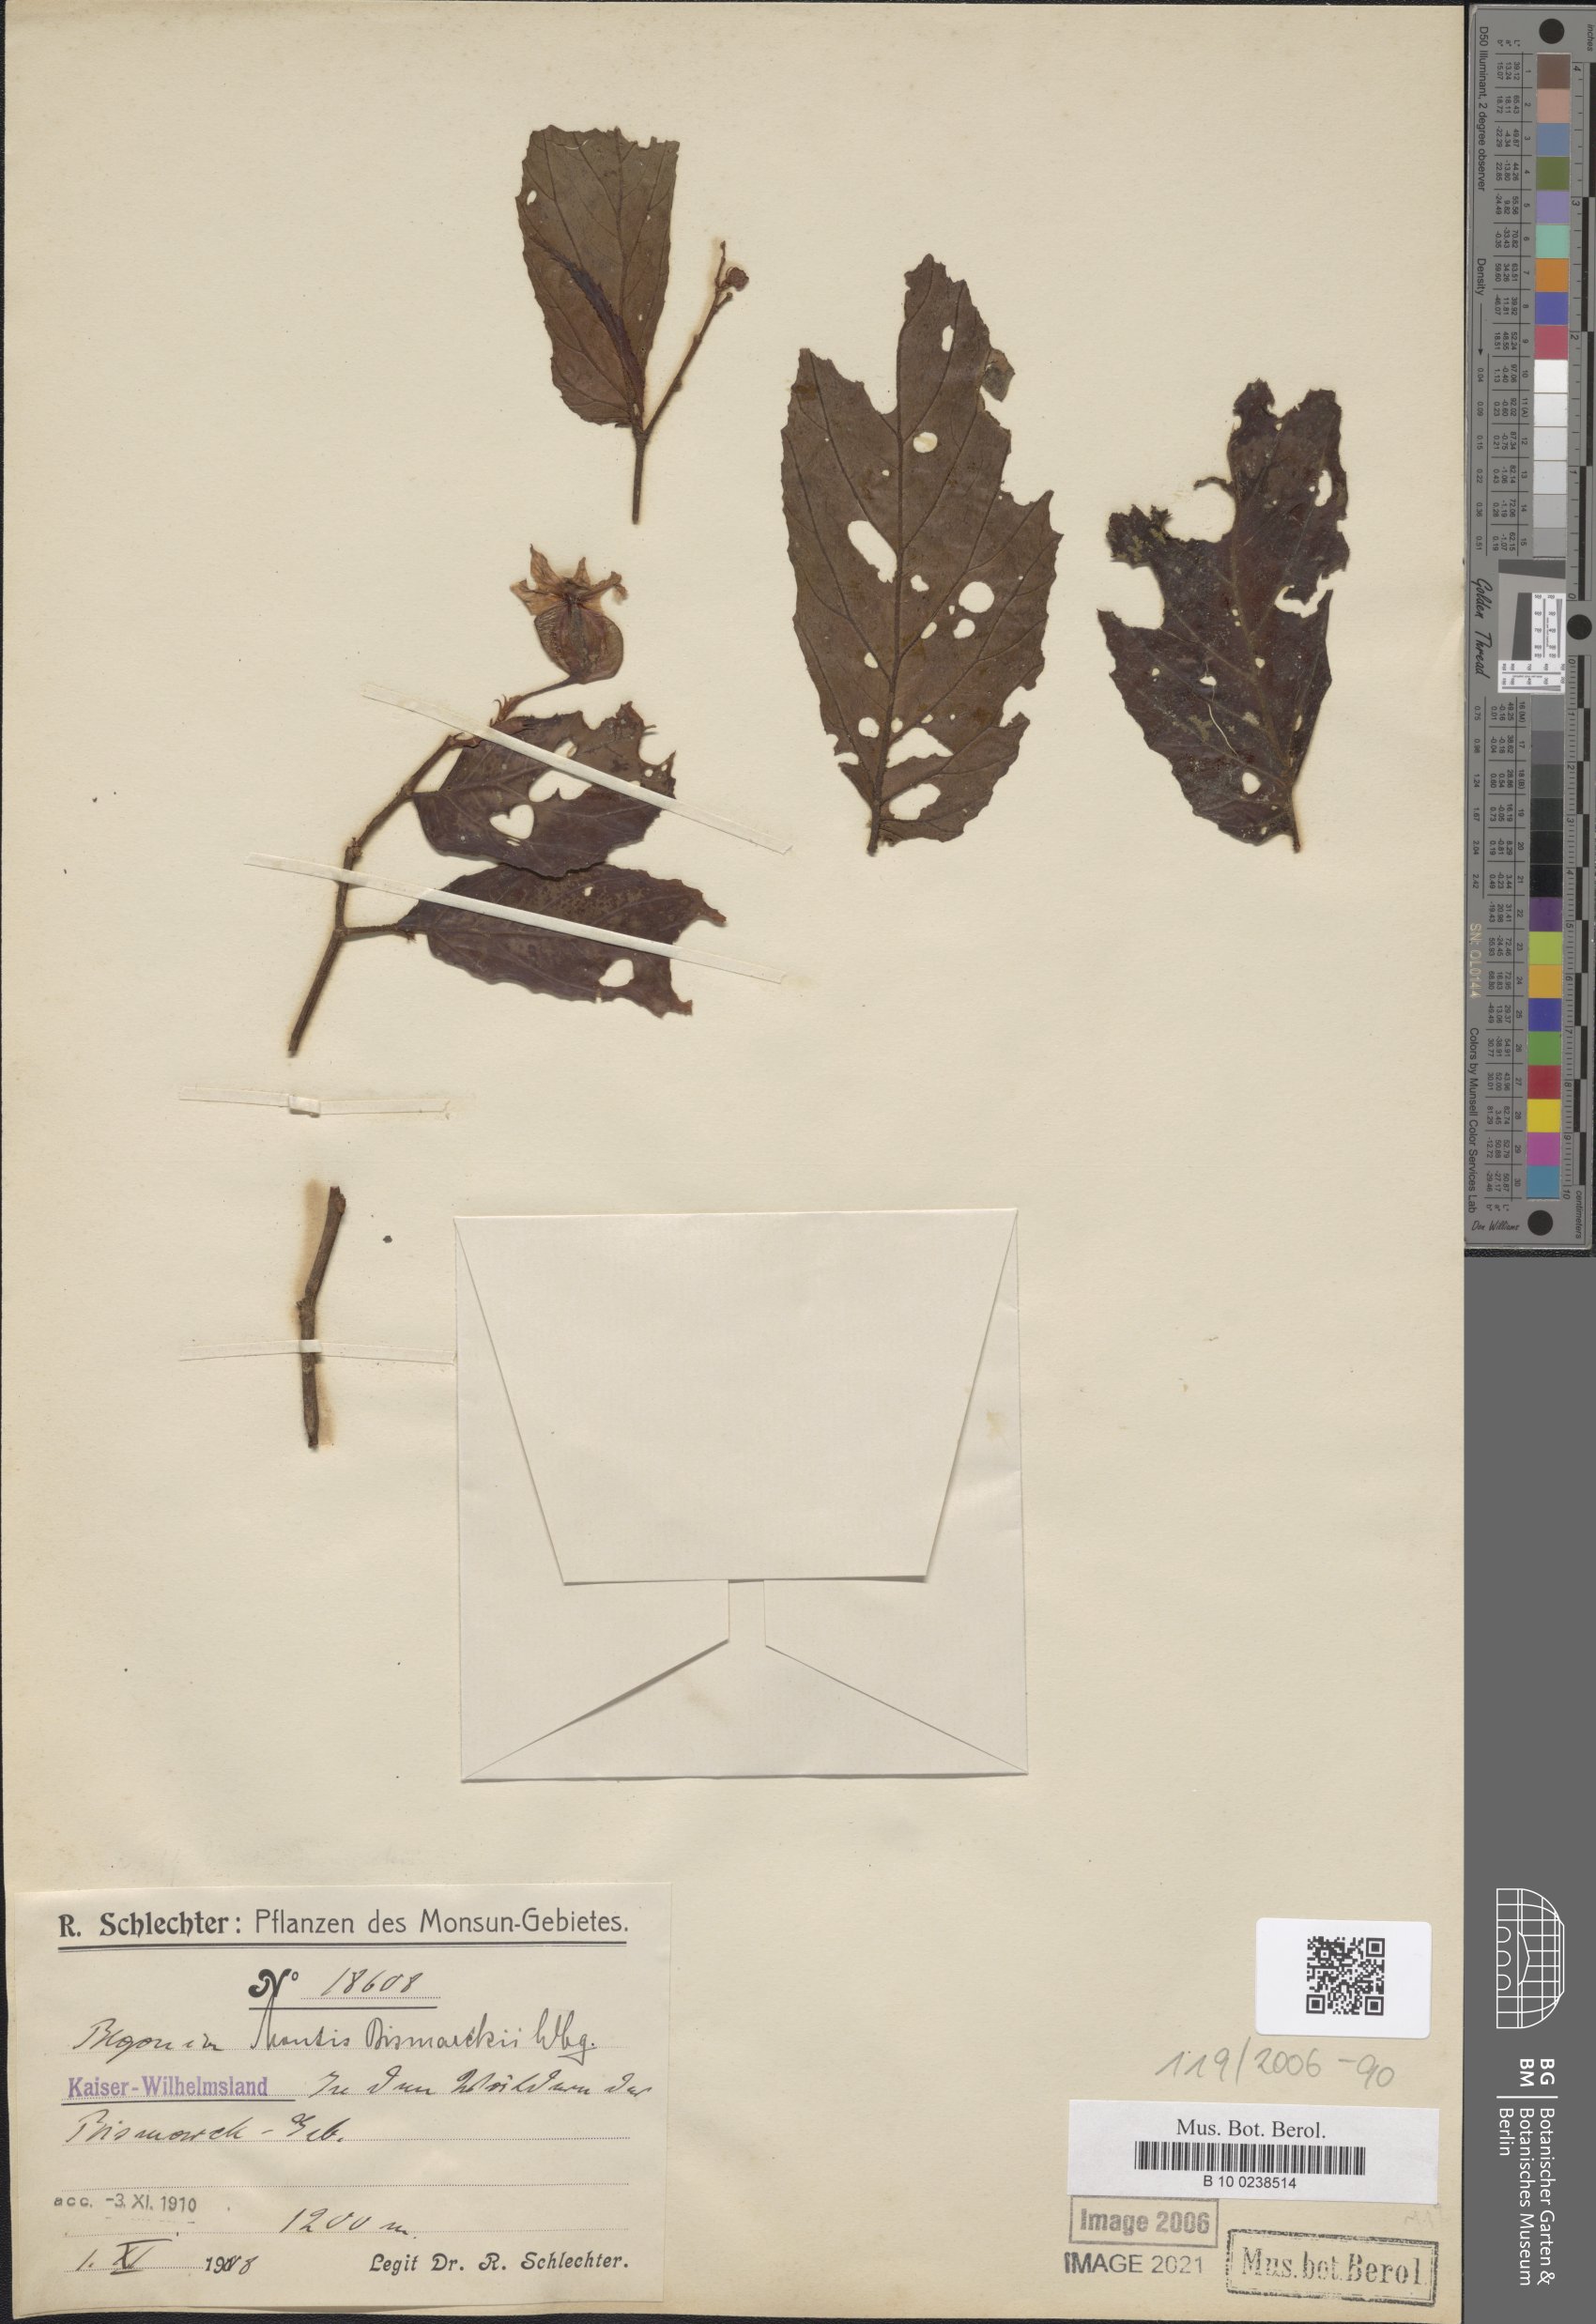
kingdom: Plantae
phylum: Tracheophyta
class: Magnoliopsida
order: Cucurbitales
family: Begoniaceae
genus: Begonia
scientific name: Begonia montis-bismarckii
